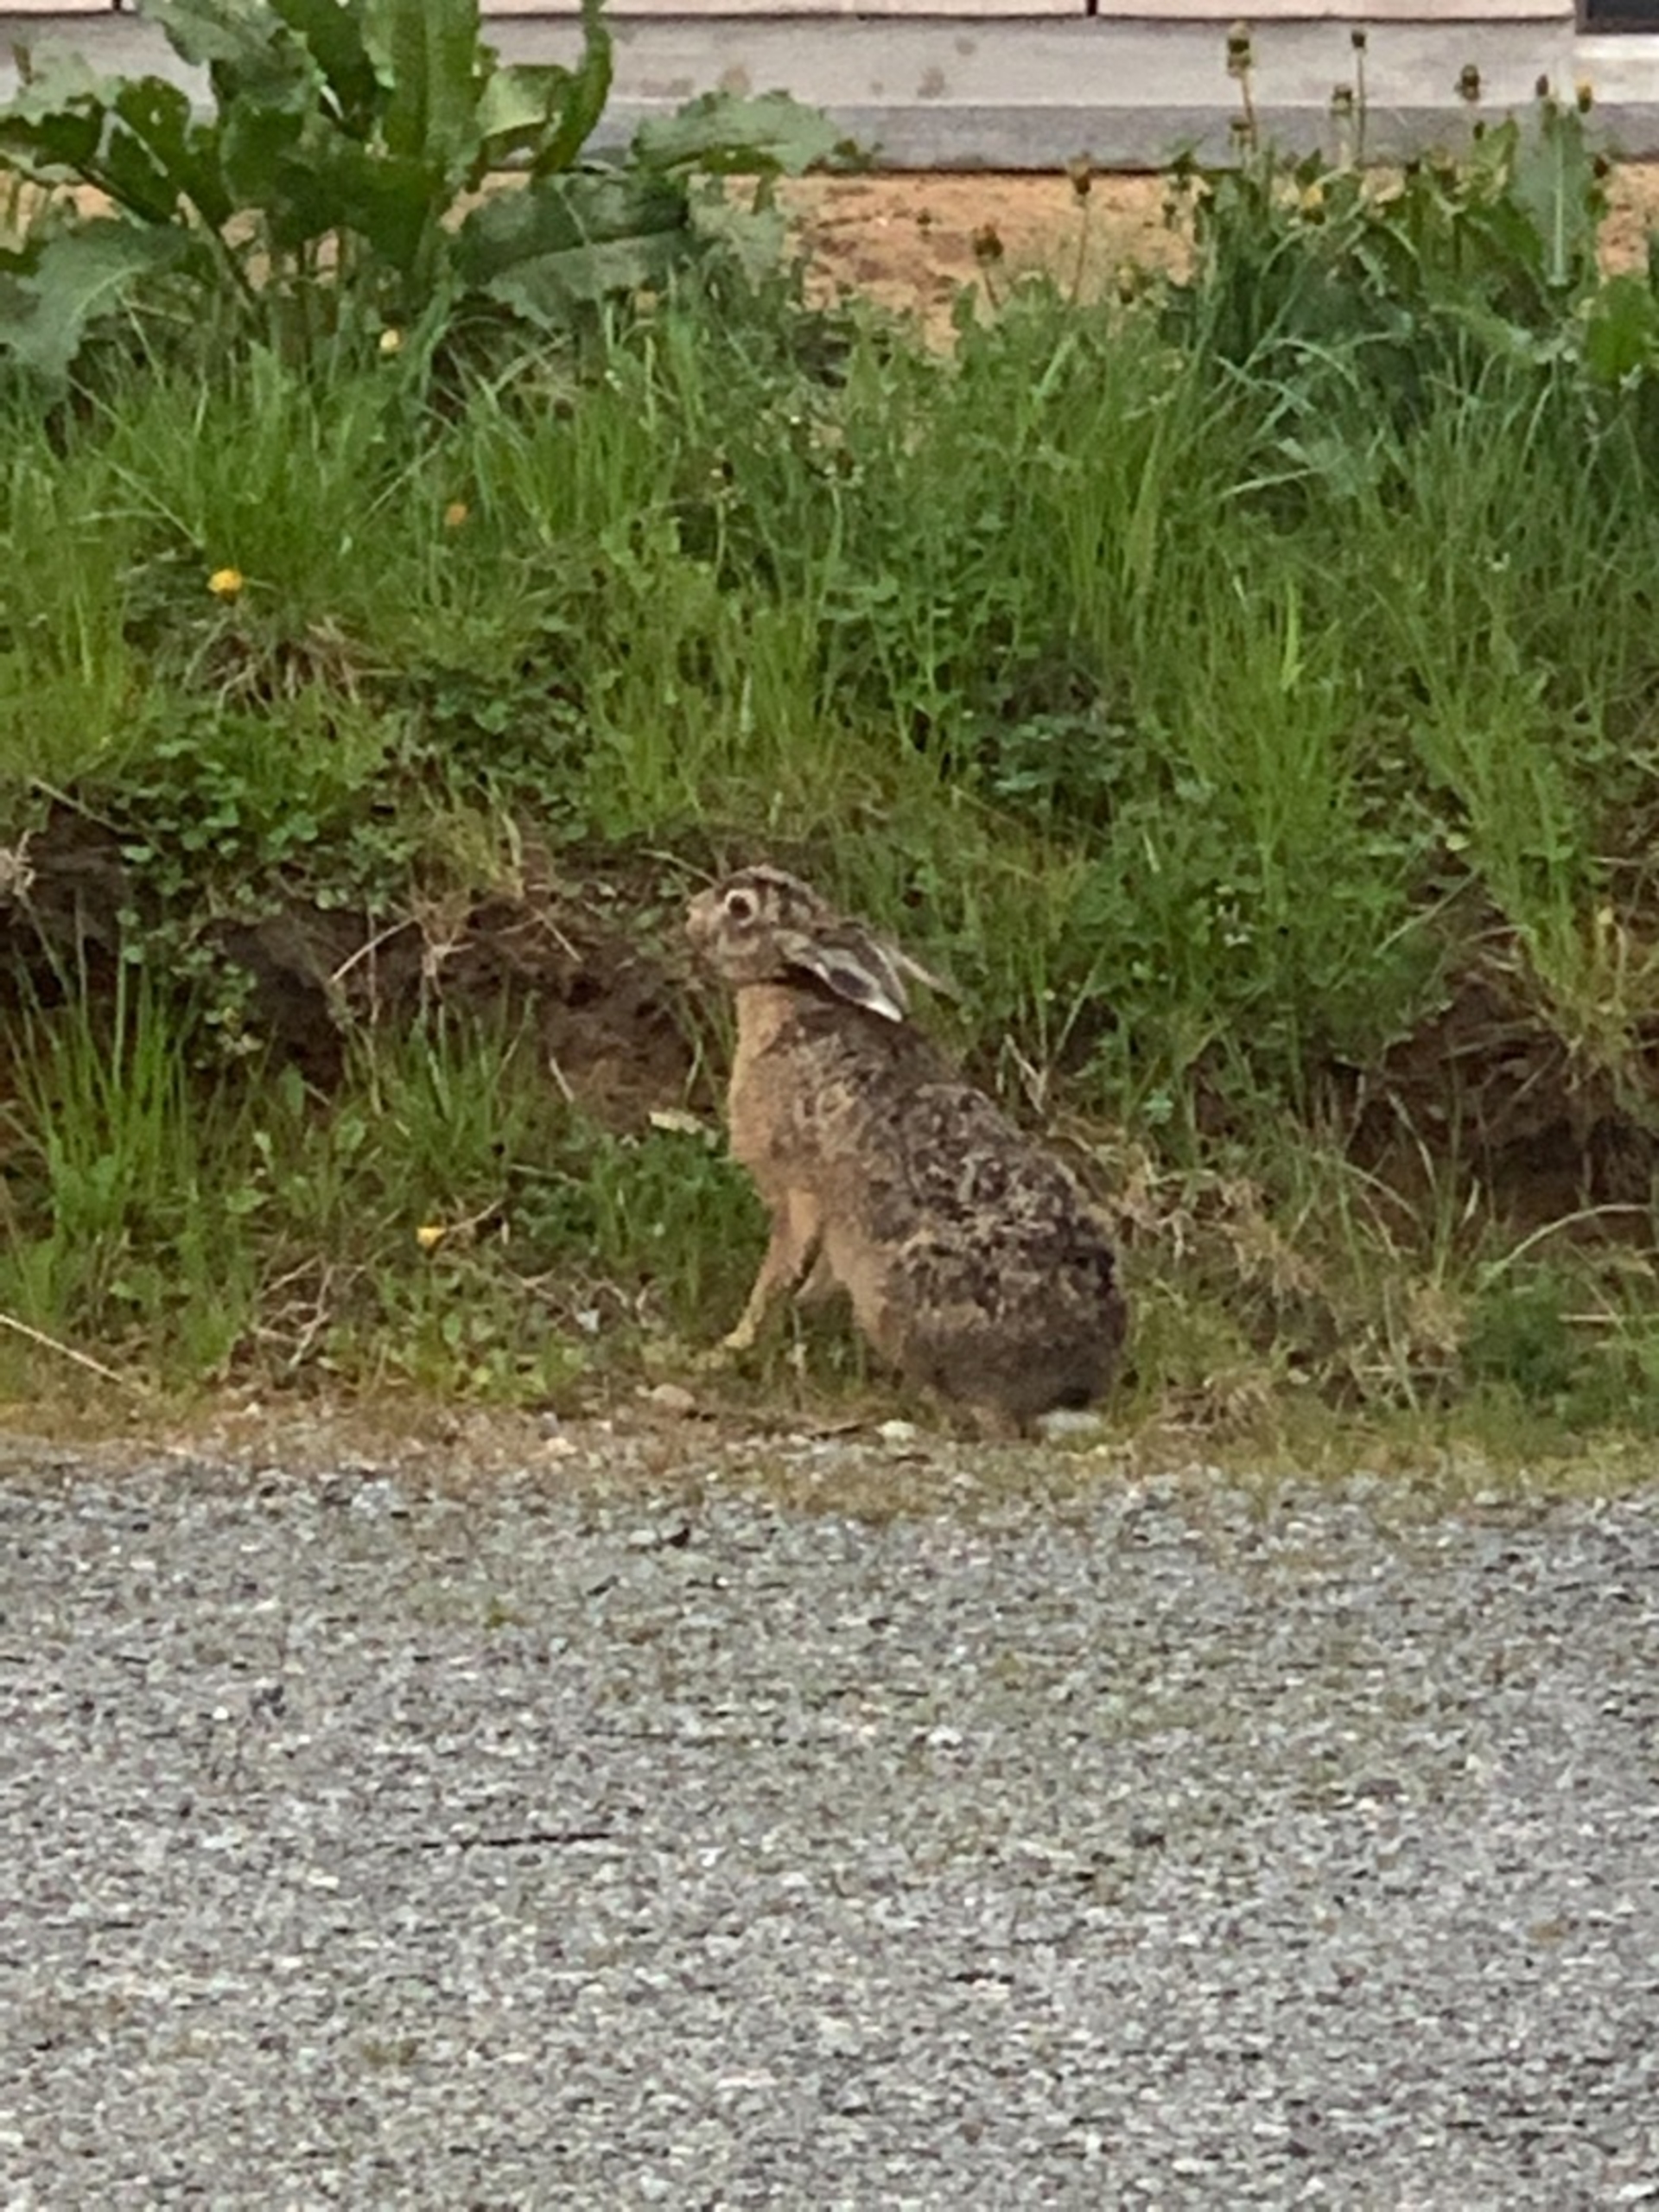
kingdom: Animalia
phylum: Chordata
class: Mammalia
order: Lagomorpha
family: Leporidae
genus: Lepus
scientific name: Lepus europaeus
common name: Hare
